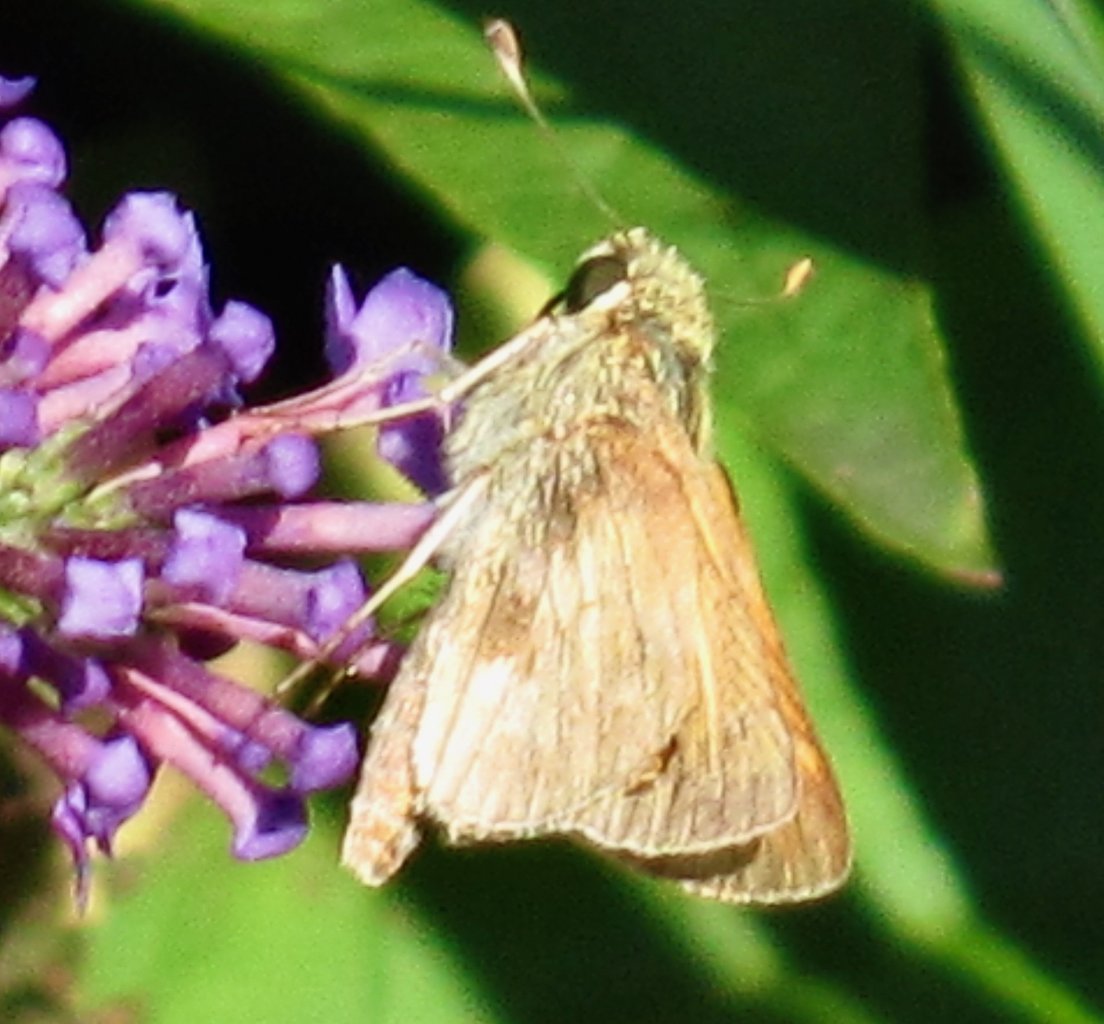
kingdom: Animalia
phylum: Arthropoda
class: Insecta
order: Lepidoptera
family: Hesperiidae
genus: Atalopedes
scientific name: Atalopedes campestris
